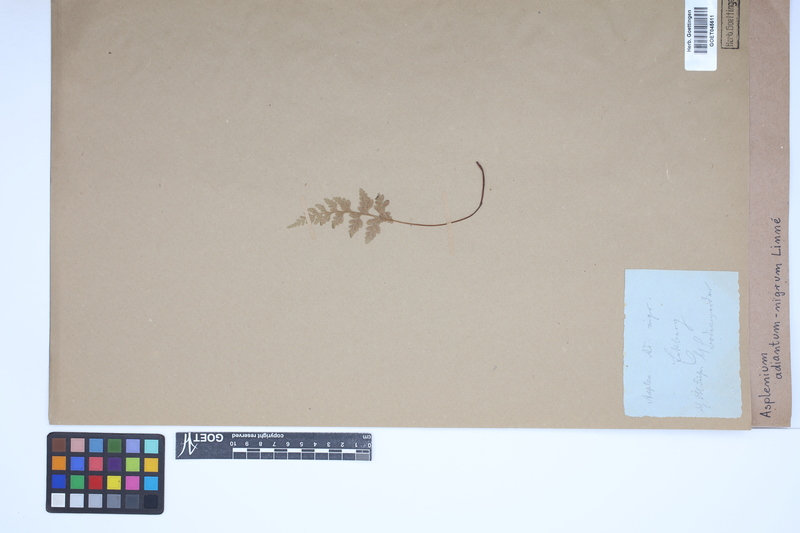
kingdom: Plantae
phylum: Tracheophyta
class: Polypodiopsida
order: Polypodiales
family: Aspleniaceae
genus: Asplenium
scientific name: Asplenium adiantum-nigrum
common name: Black spleenwort
